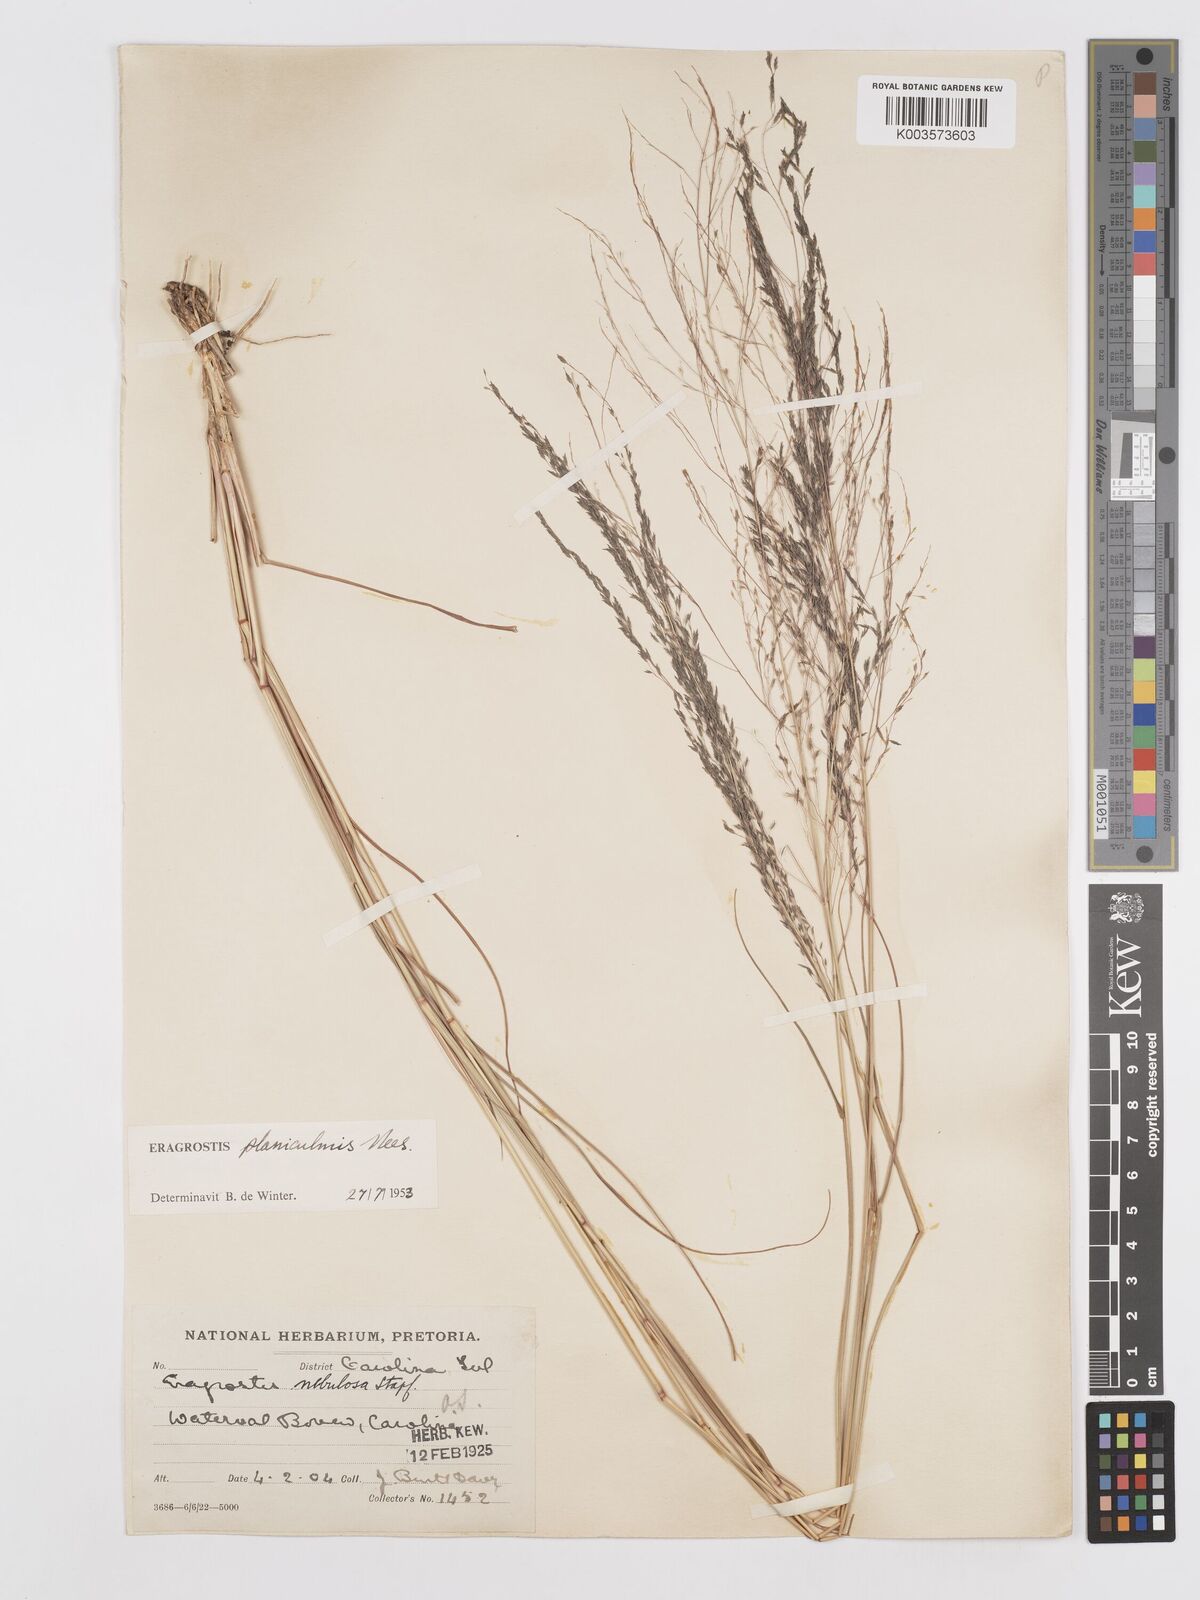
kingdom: Plantae
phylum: Tracheophyta
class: Liliopsida
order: Poales
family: Poaceae
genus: Eragrostis
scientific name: Eragrostis planiculmis
